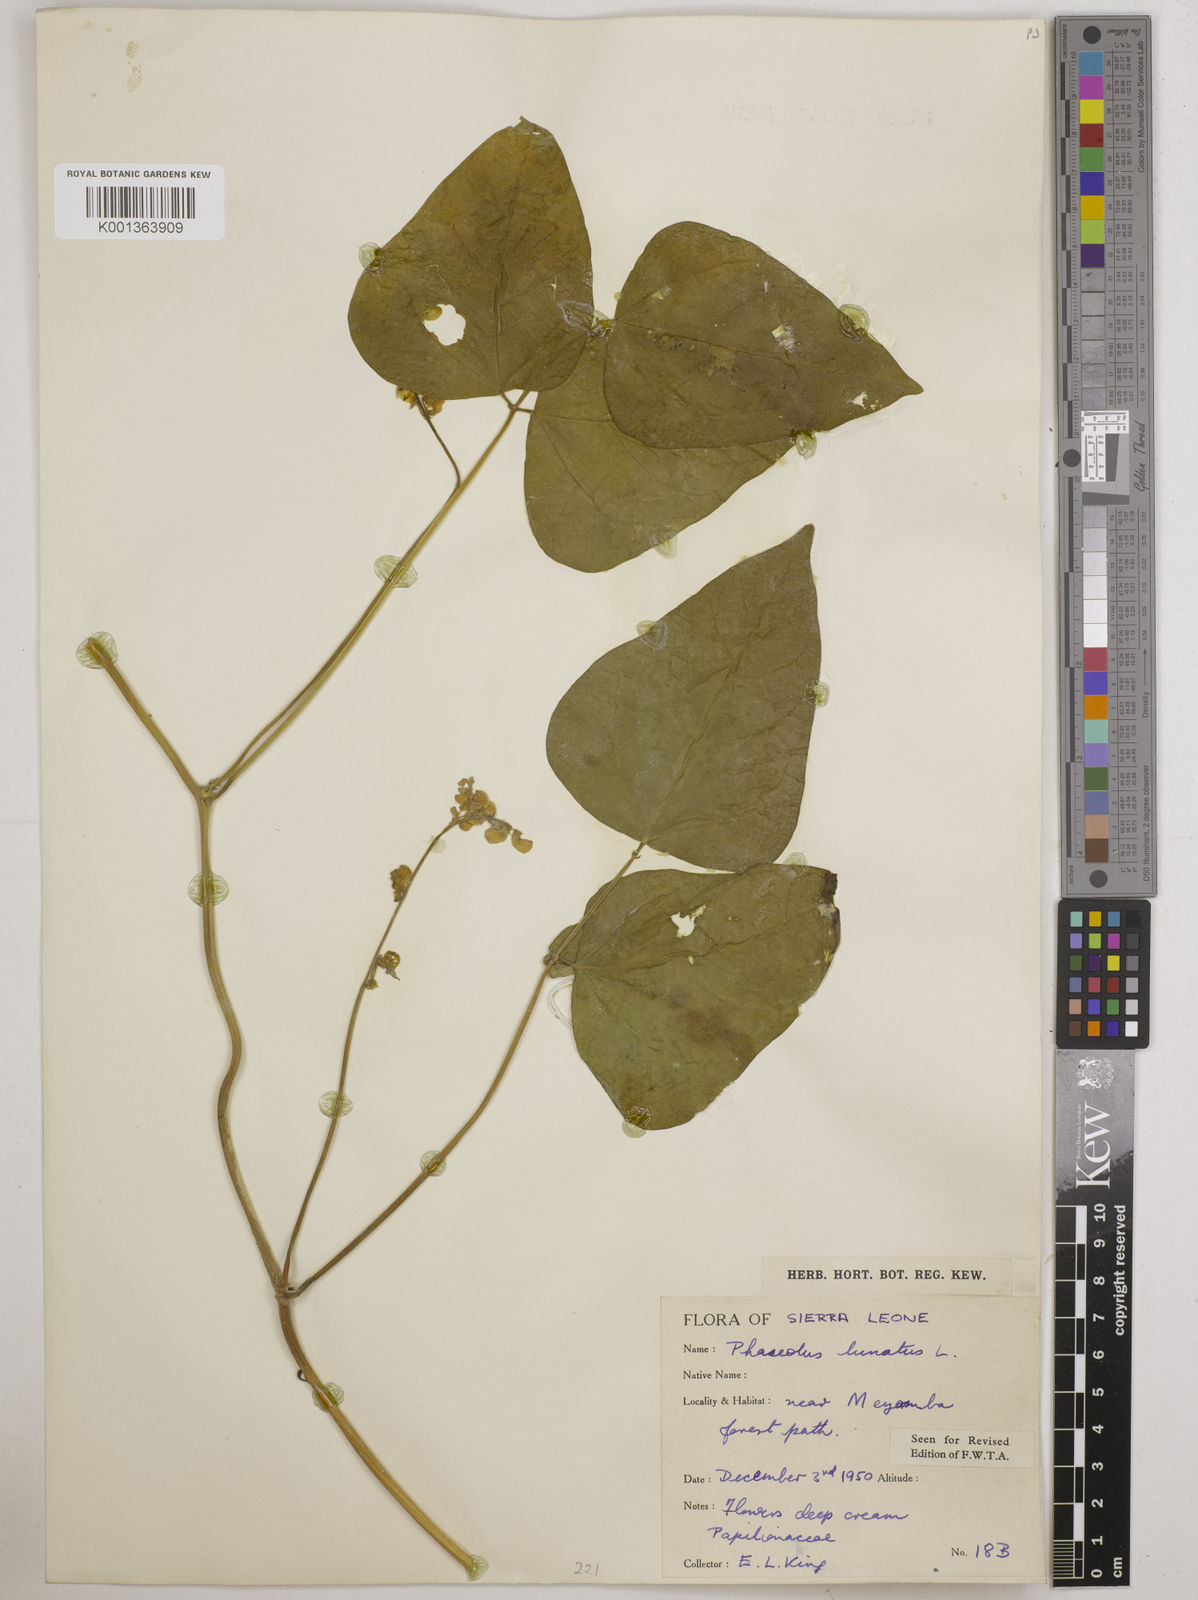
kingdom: Plantae
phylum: Tracheophyta
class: Magnoliopsida
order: Fabales
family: Fabaceae
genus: Phaseolus
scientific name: Phaseolus lunatus
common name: Sieva bean
